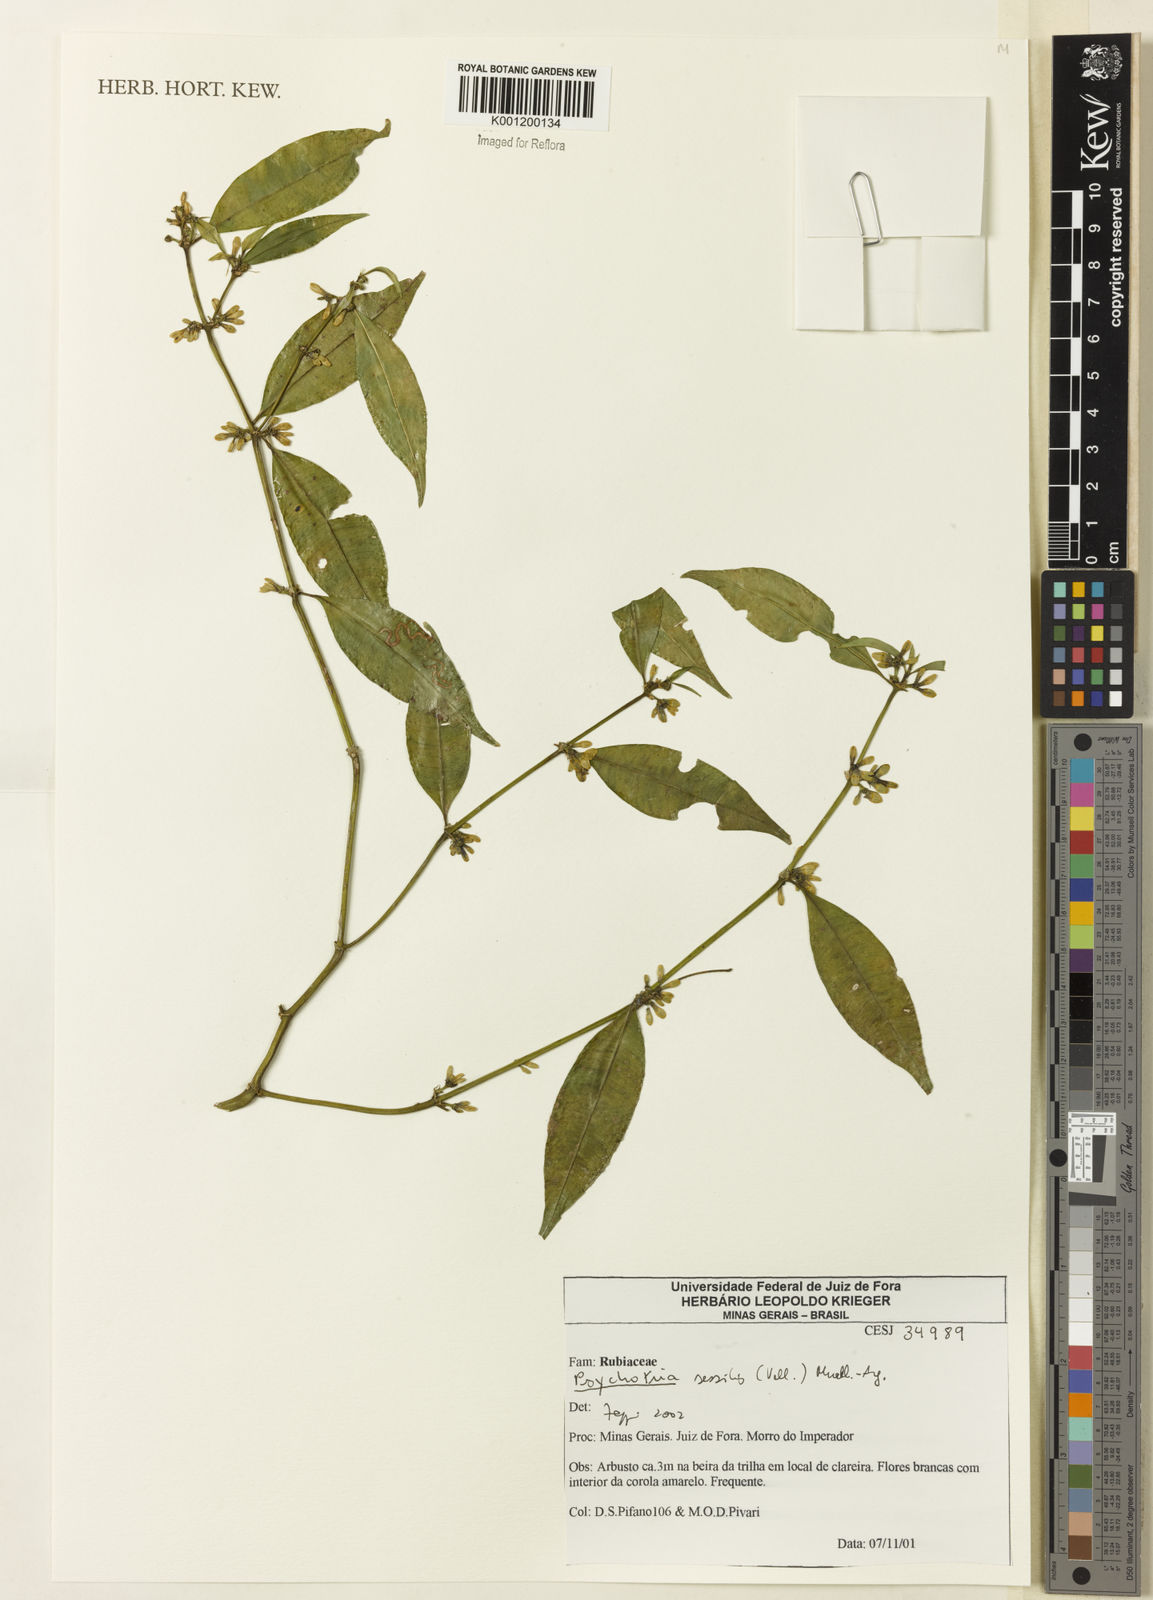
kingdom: Plantae
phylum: Tracheophyta
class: Magnoliopsida
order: Gentianales
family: Rubiaceae
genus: Rudgea
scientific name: Rudgea sessilis
